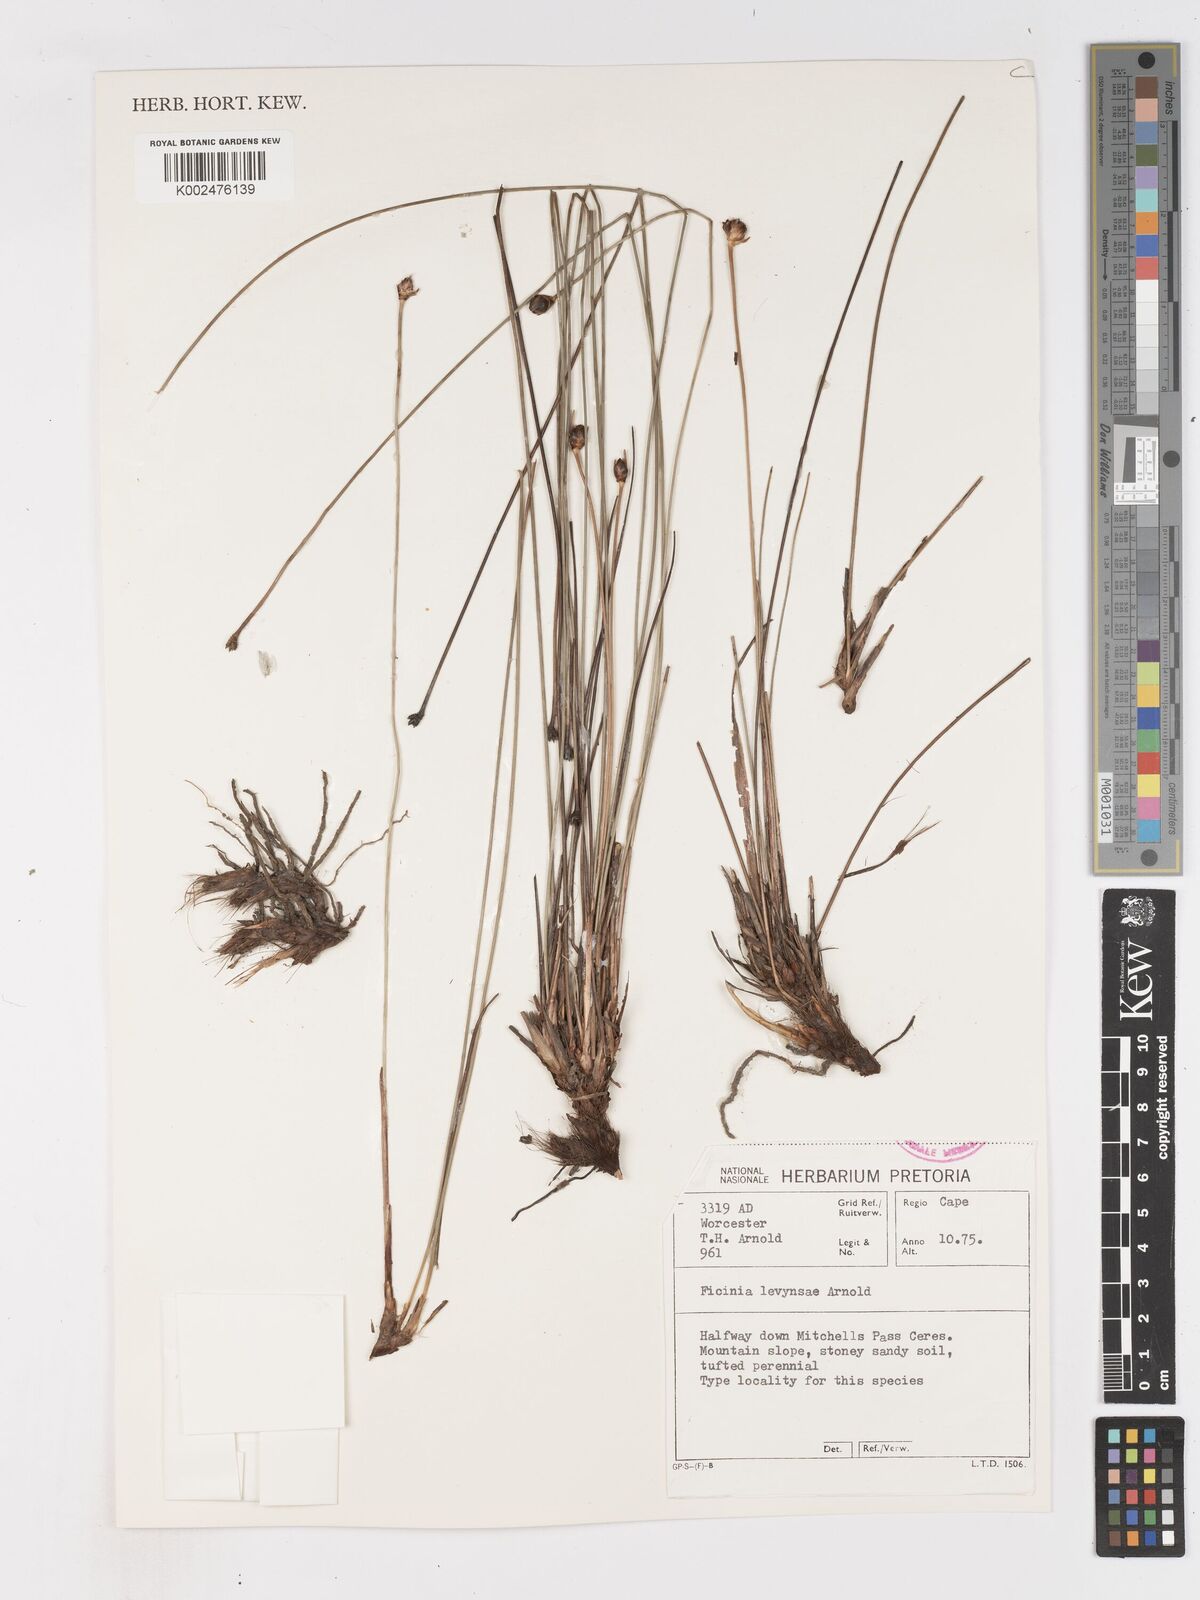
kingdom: Plantae
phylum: Tracheophyta
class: Liliopsida
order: Poales
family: Cyperaceae
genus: Ficinia
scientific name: Ficinia levynsiae
